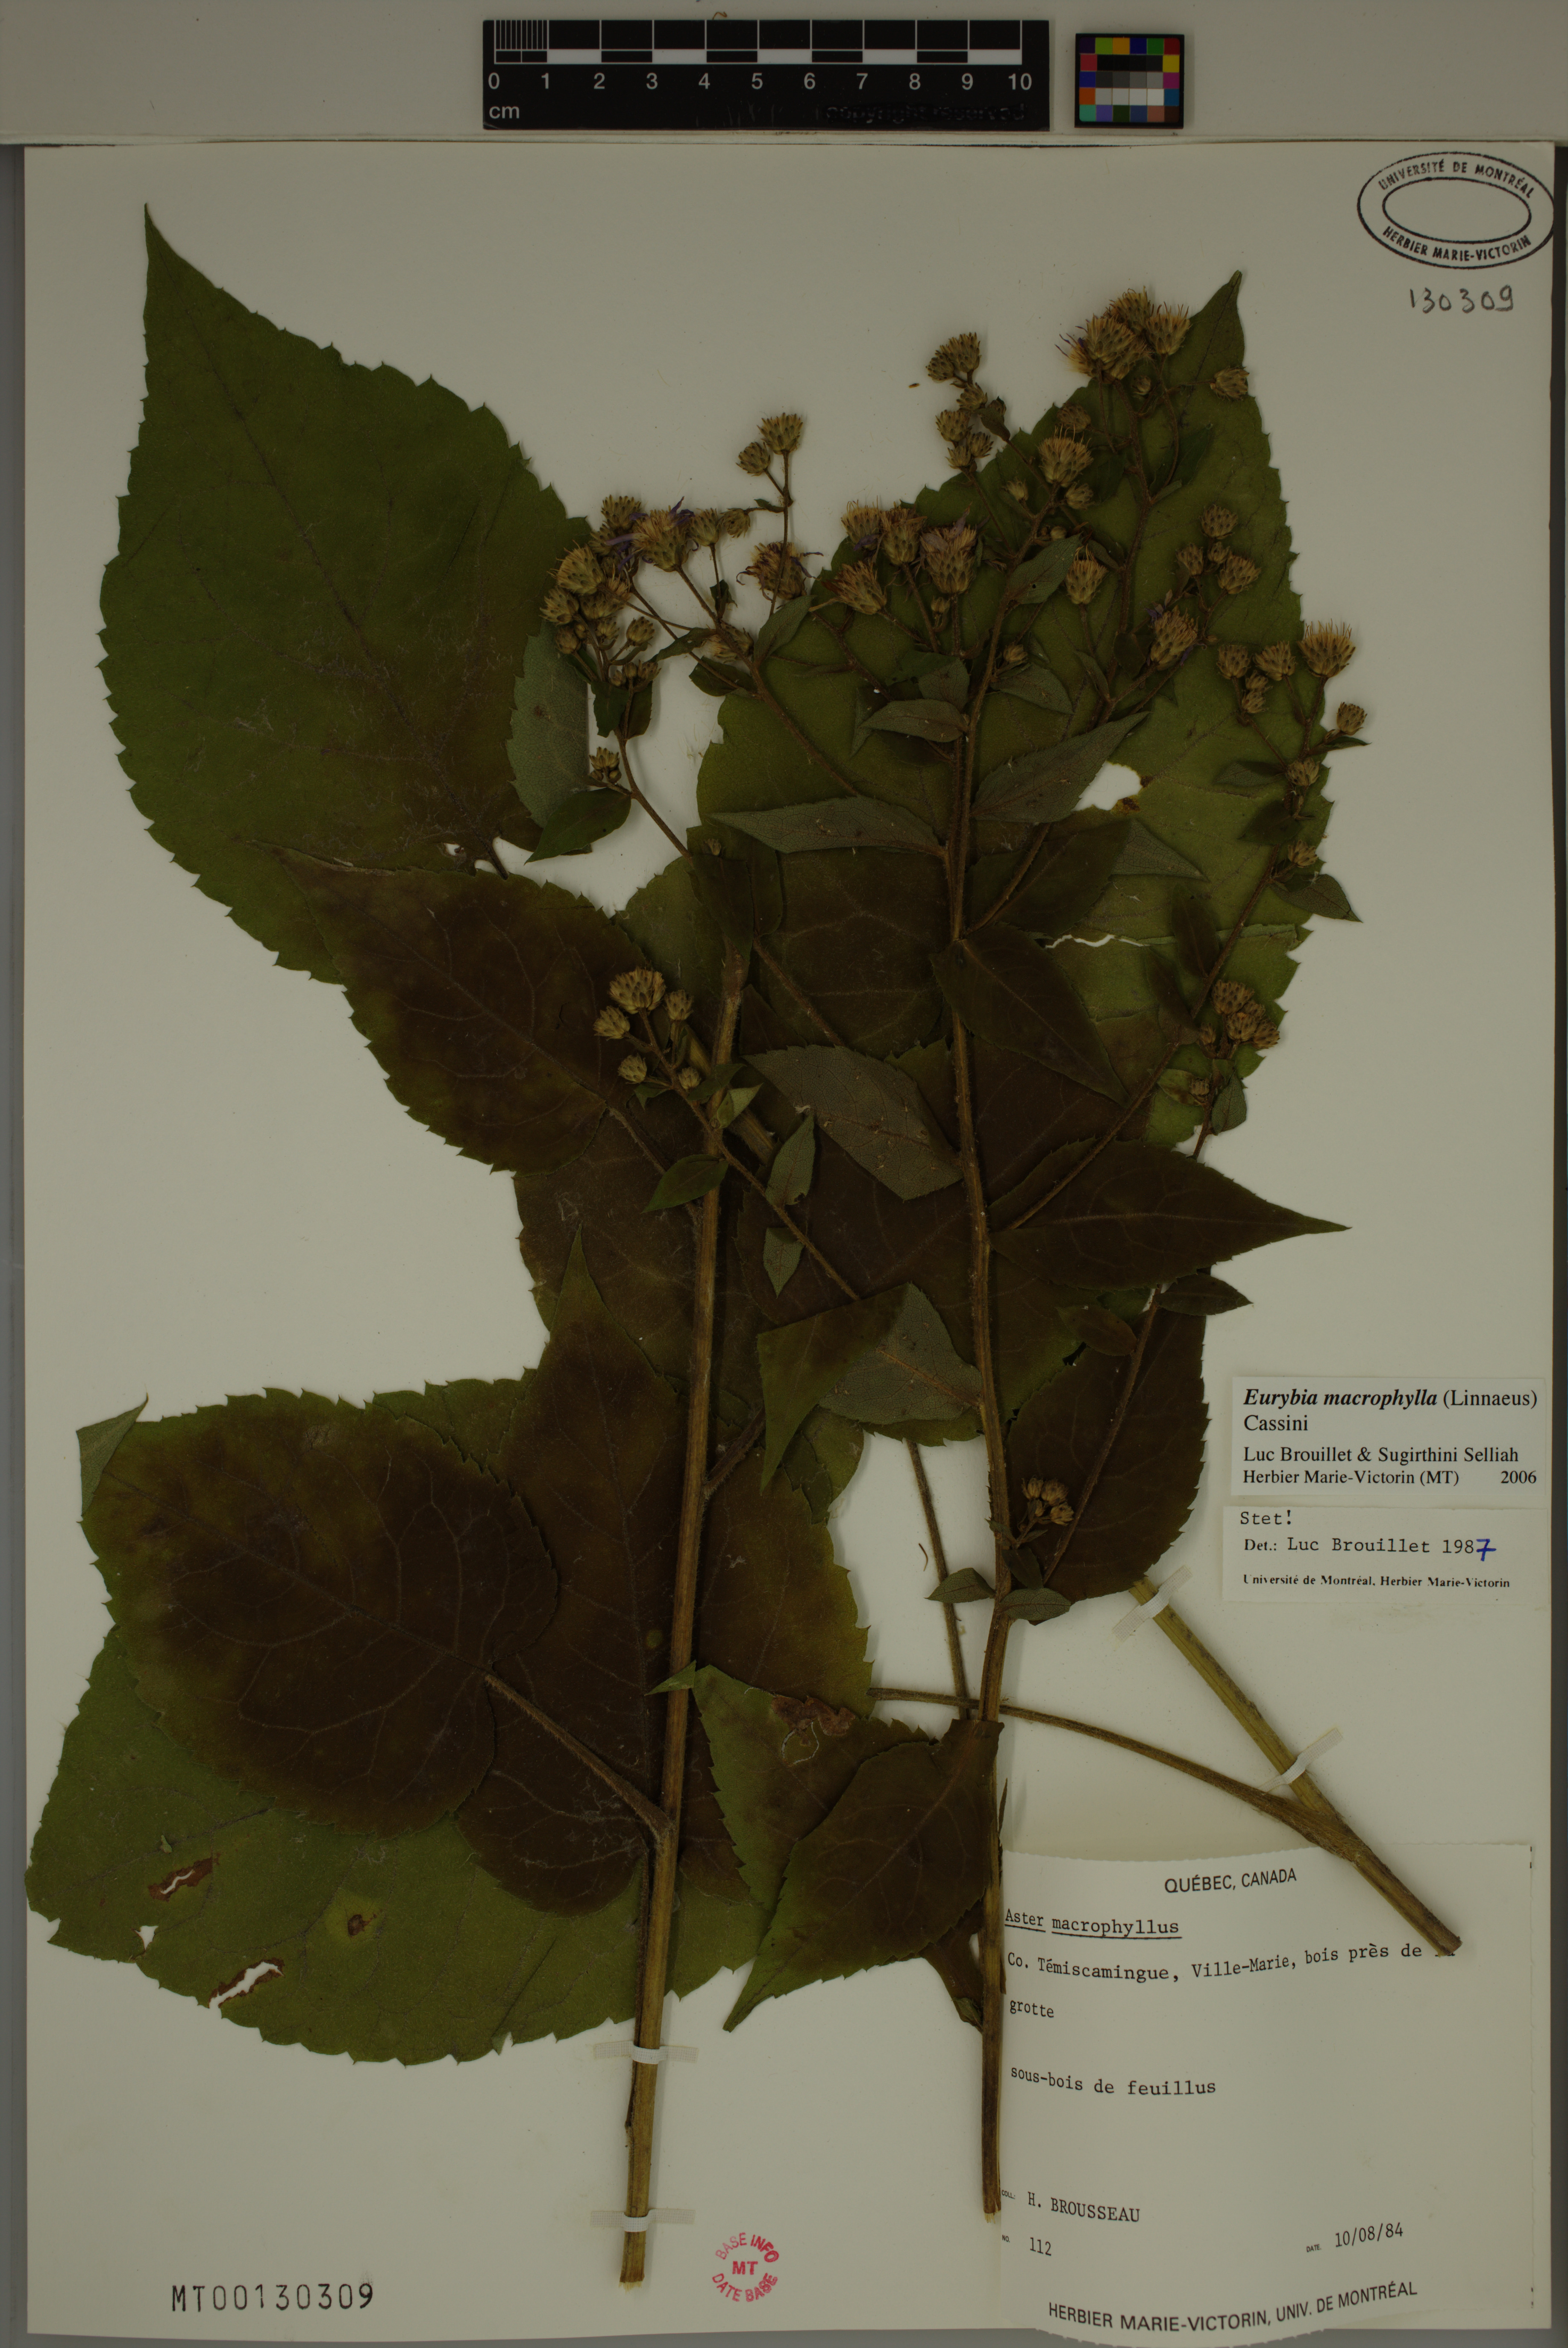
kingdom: Plantae
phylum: Tracheophyta
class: Magnoliopsida
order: Asterales
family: Asteraceae
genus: Eurybia
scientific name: Eurybia macrophylla
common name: Big-leaved aster
